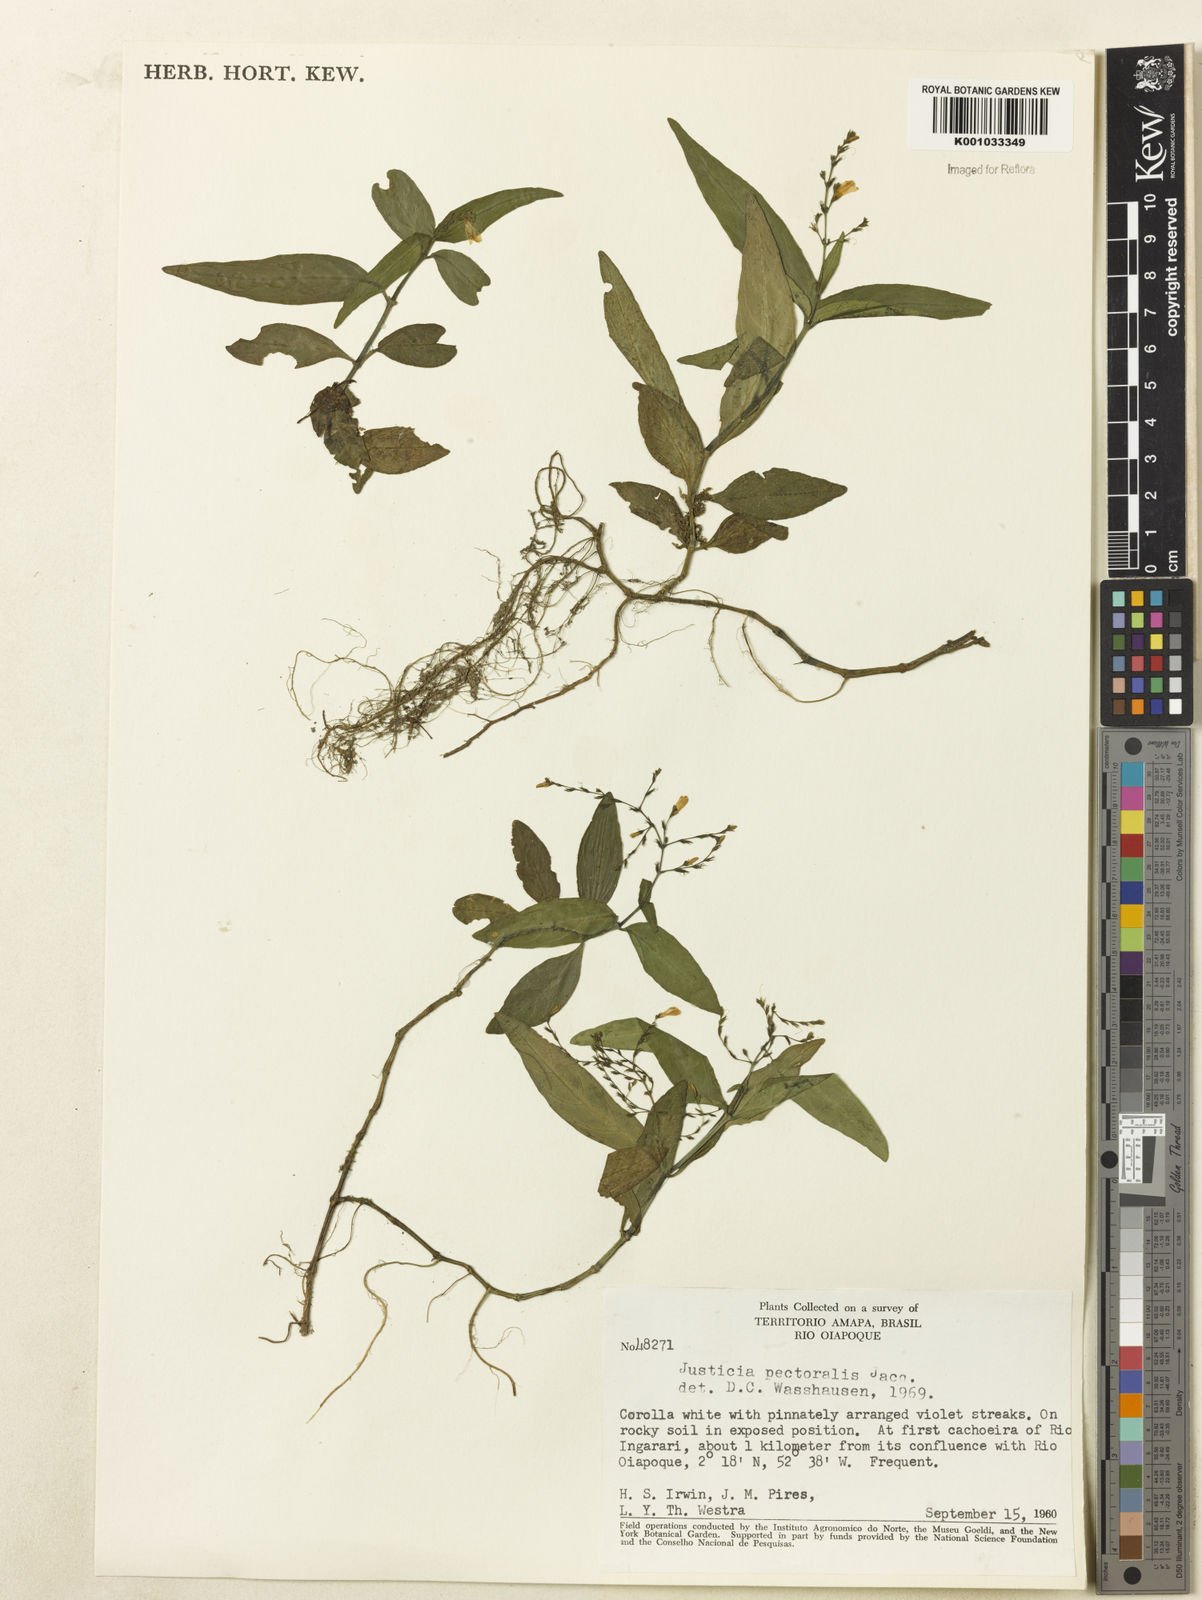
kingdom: Plantae
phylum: Tracheophyta
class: Magnoliopsida
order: Lamiales
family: Acanthaceae
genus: Dianthera
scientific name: Dianthera pectoralis
